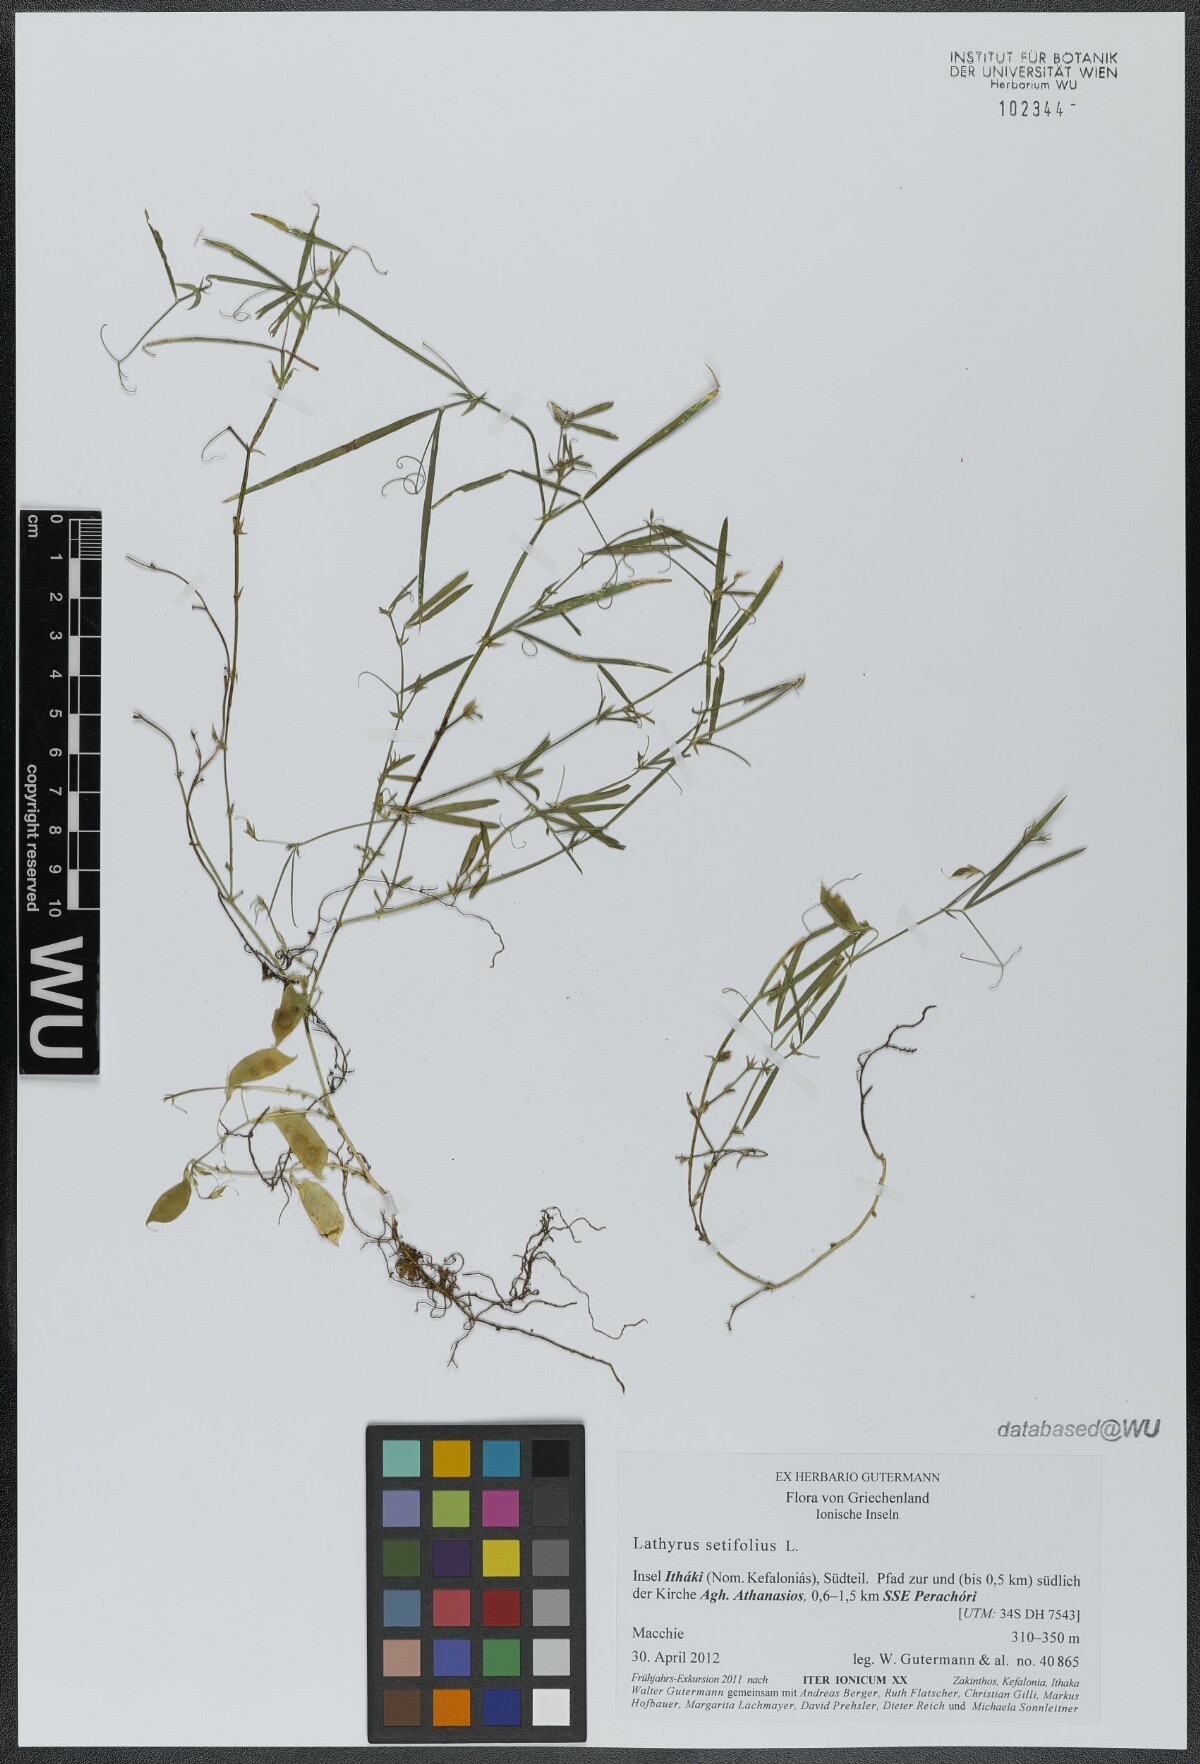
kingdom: Plantae
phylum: Tracheophyta
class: Magnoliopsida
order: Fabales
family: Fabaceae
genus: Lathyrus
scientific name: Lathyrus setifolius
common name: Brown vetchling
